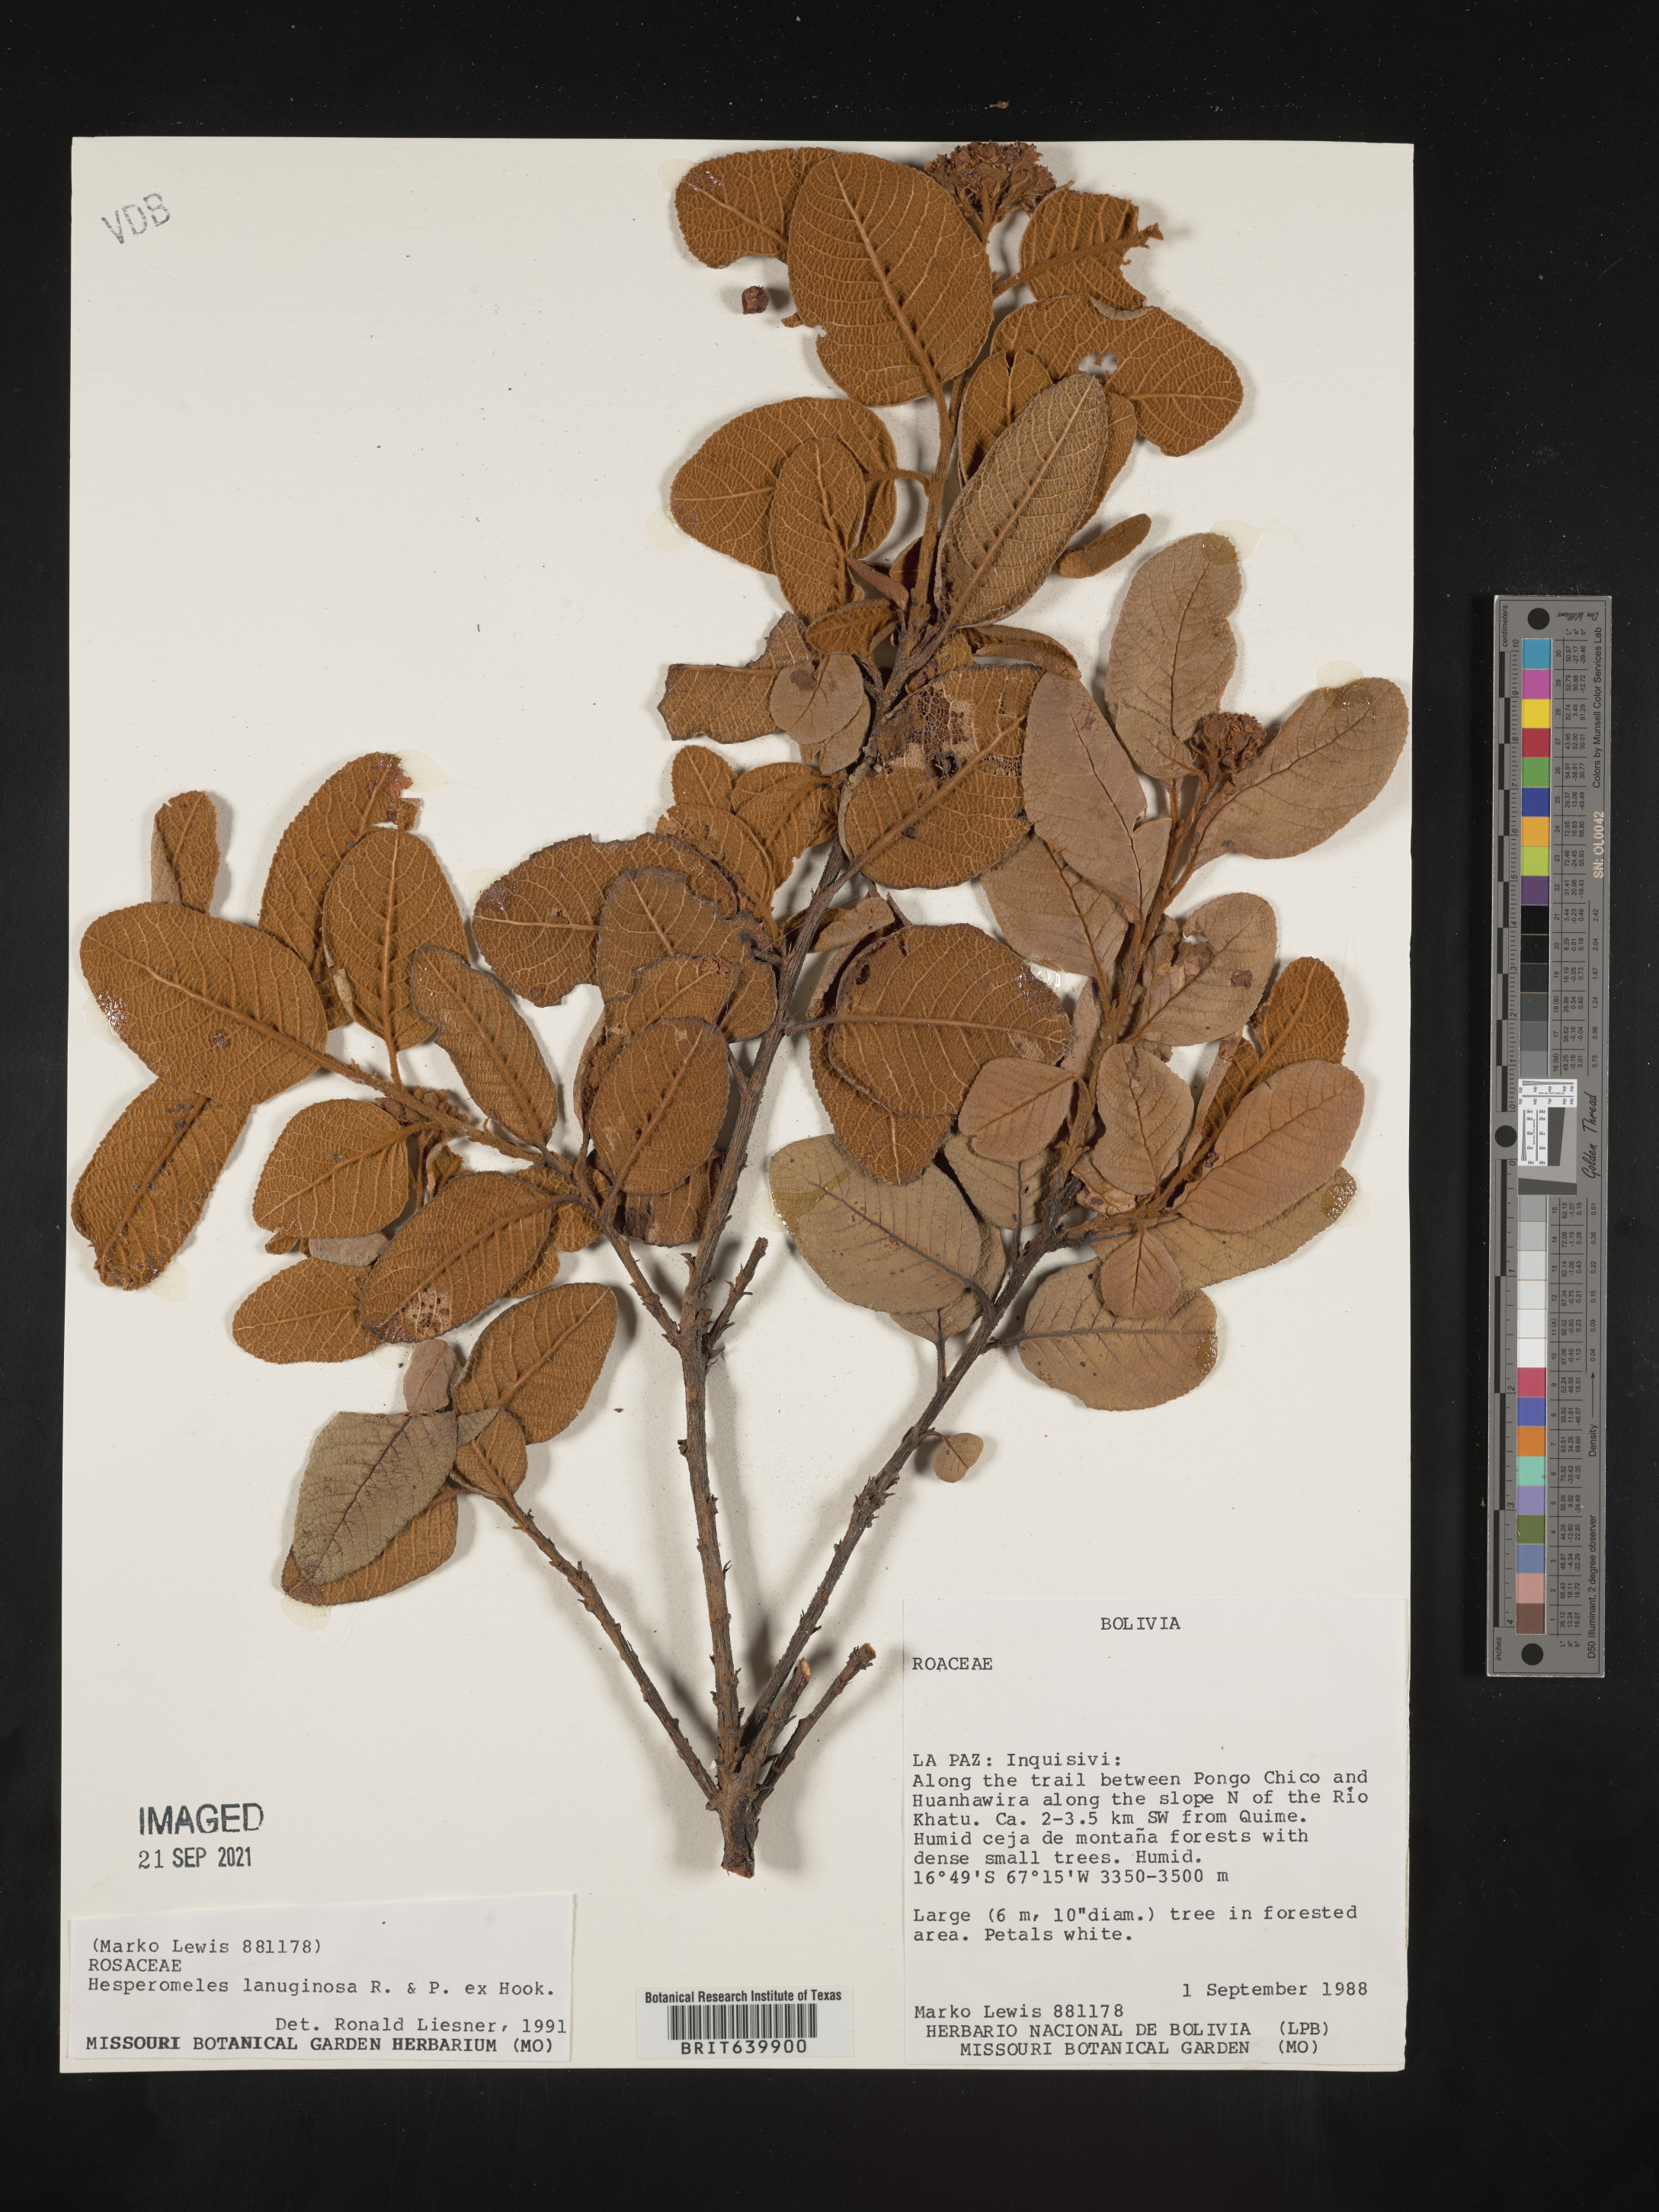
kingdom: Plantae
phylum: Tracheophyta
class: Magnoliopsida
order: Rosales
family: Rosaceae
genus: Hesperomeles
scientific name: Hesperomeles
